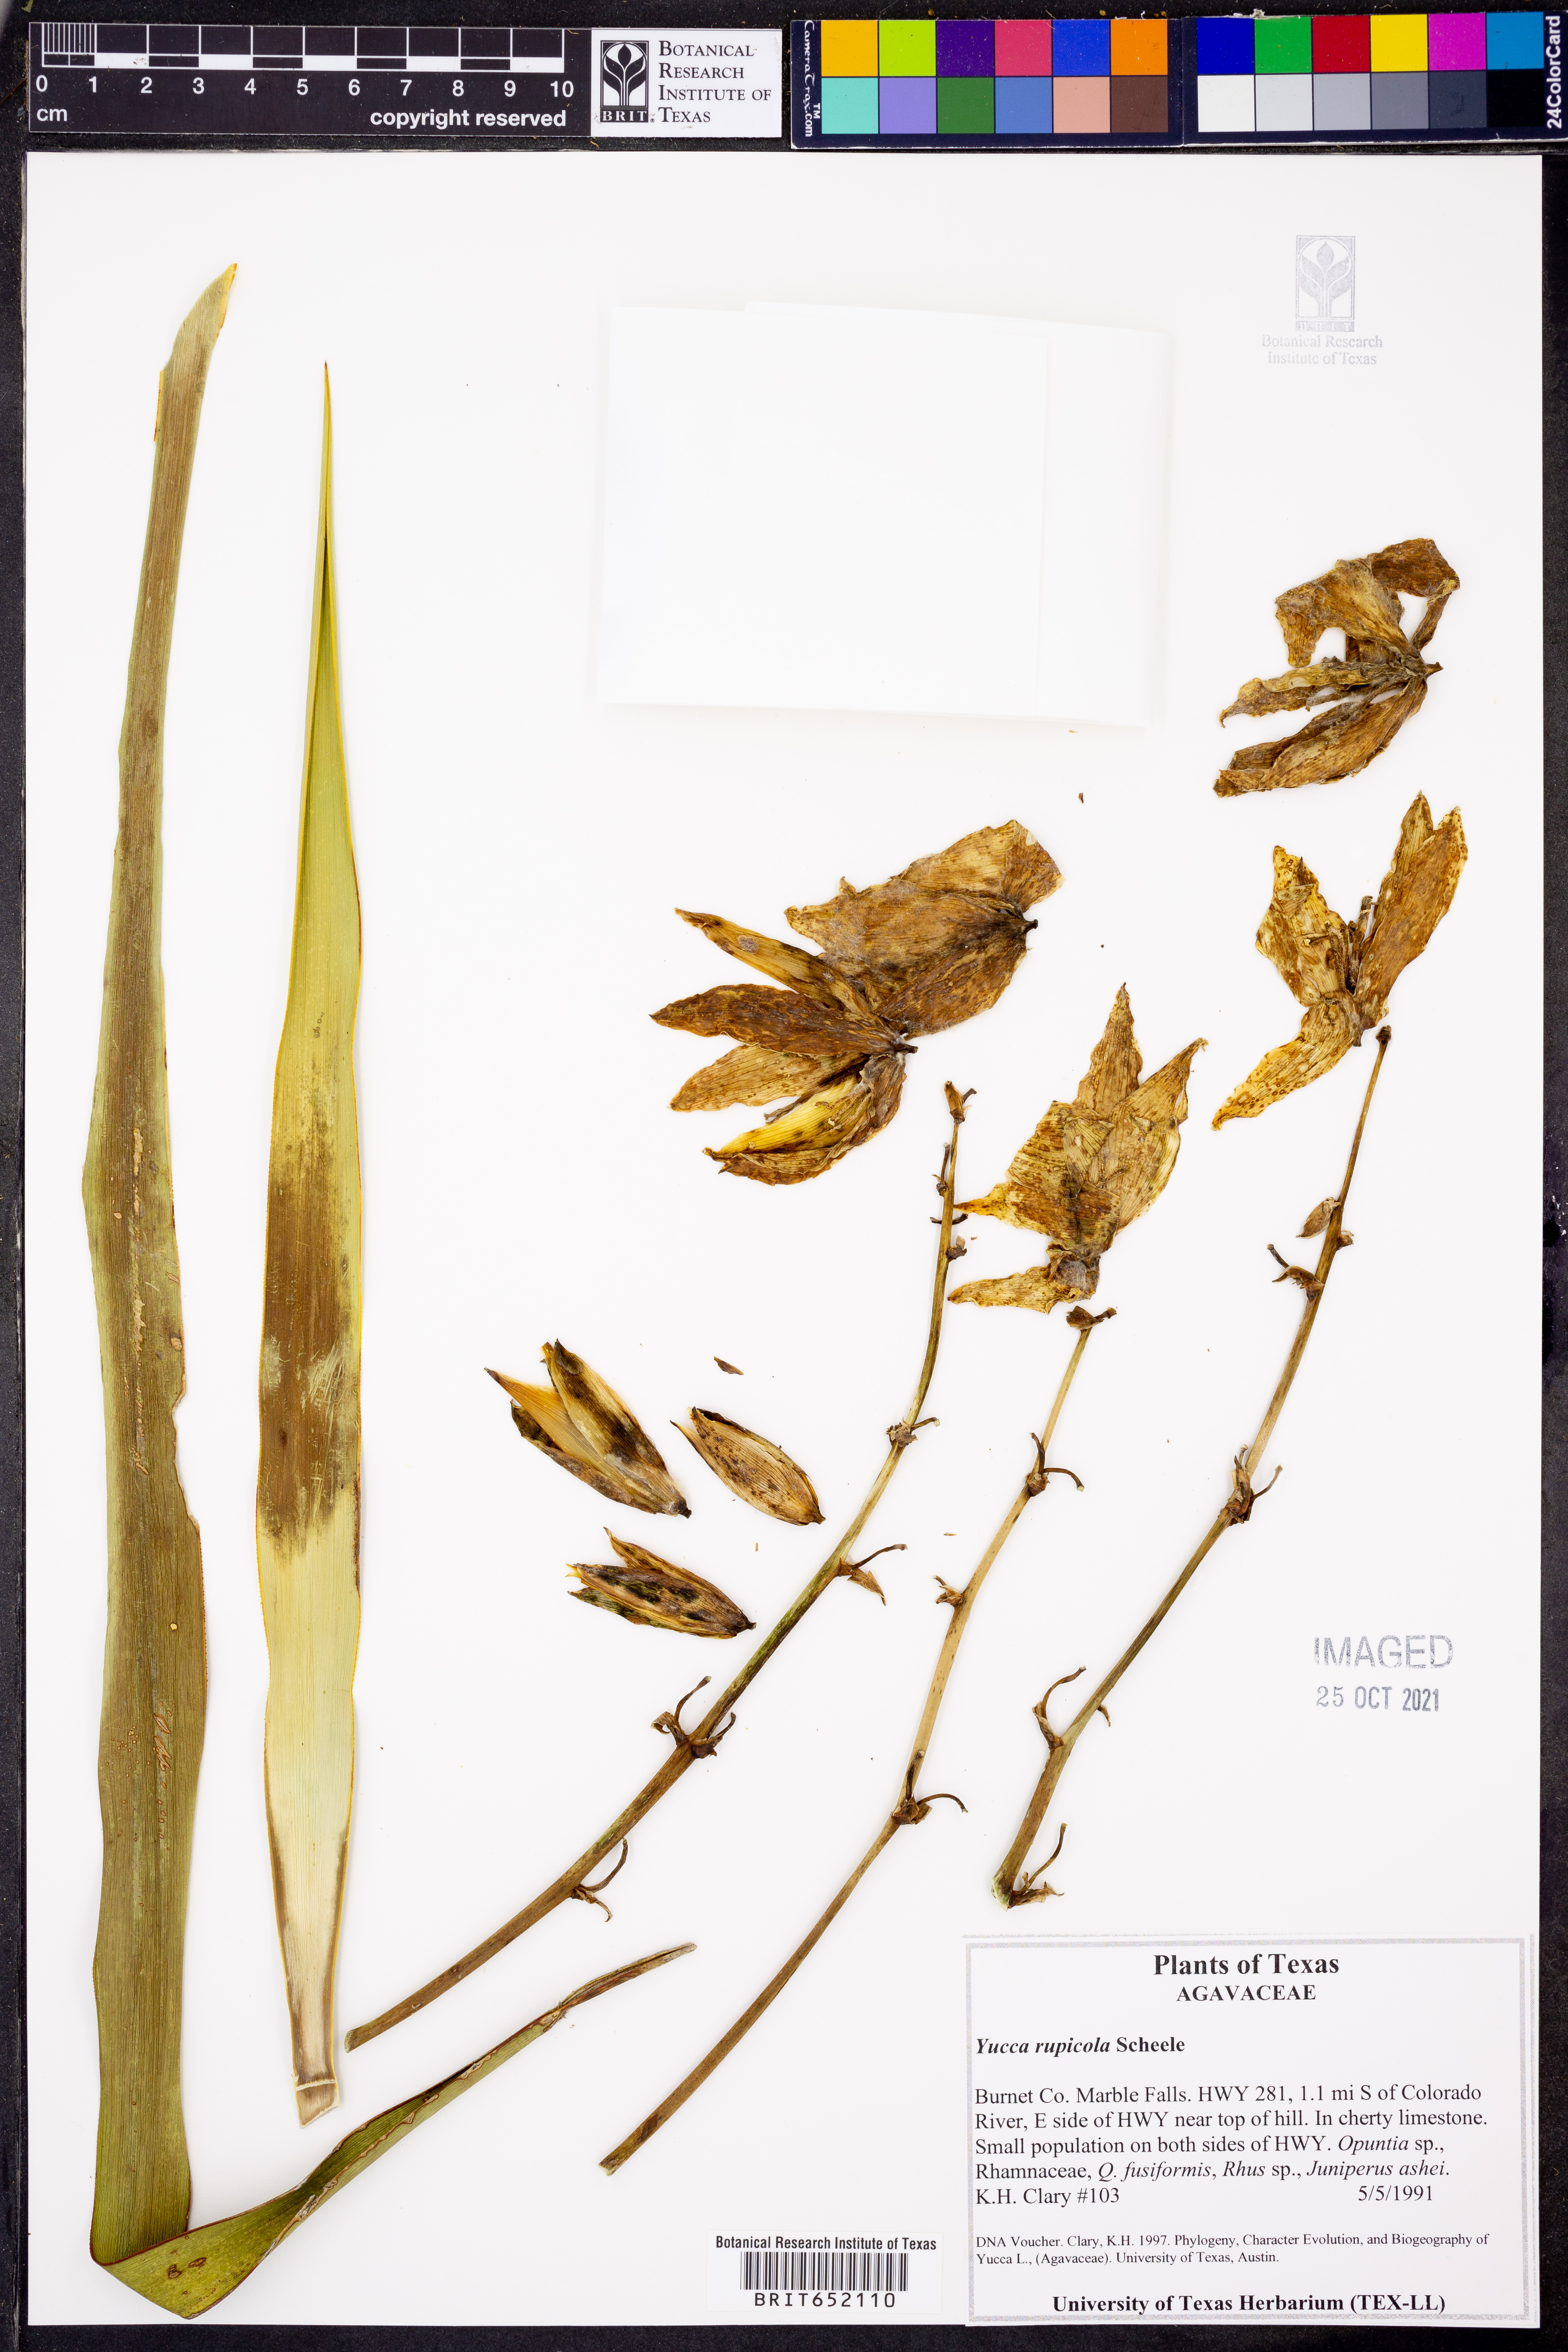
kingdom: Plantae
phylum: Tracheophyta
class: Liliopsida
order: Asparagales
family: Asparagaceae
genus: Yucca
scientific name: Yucca rupicola
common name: Twisted-leaf spanish-dagger
